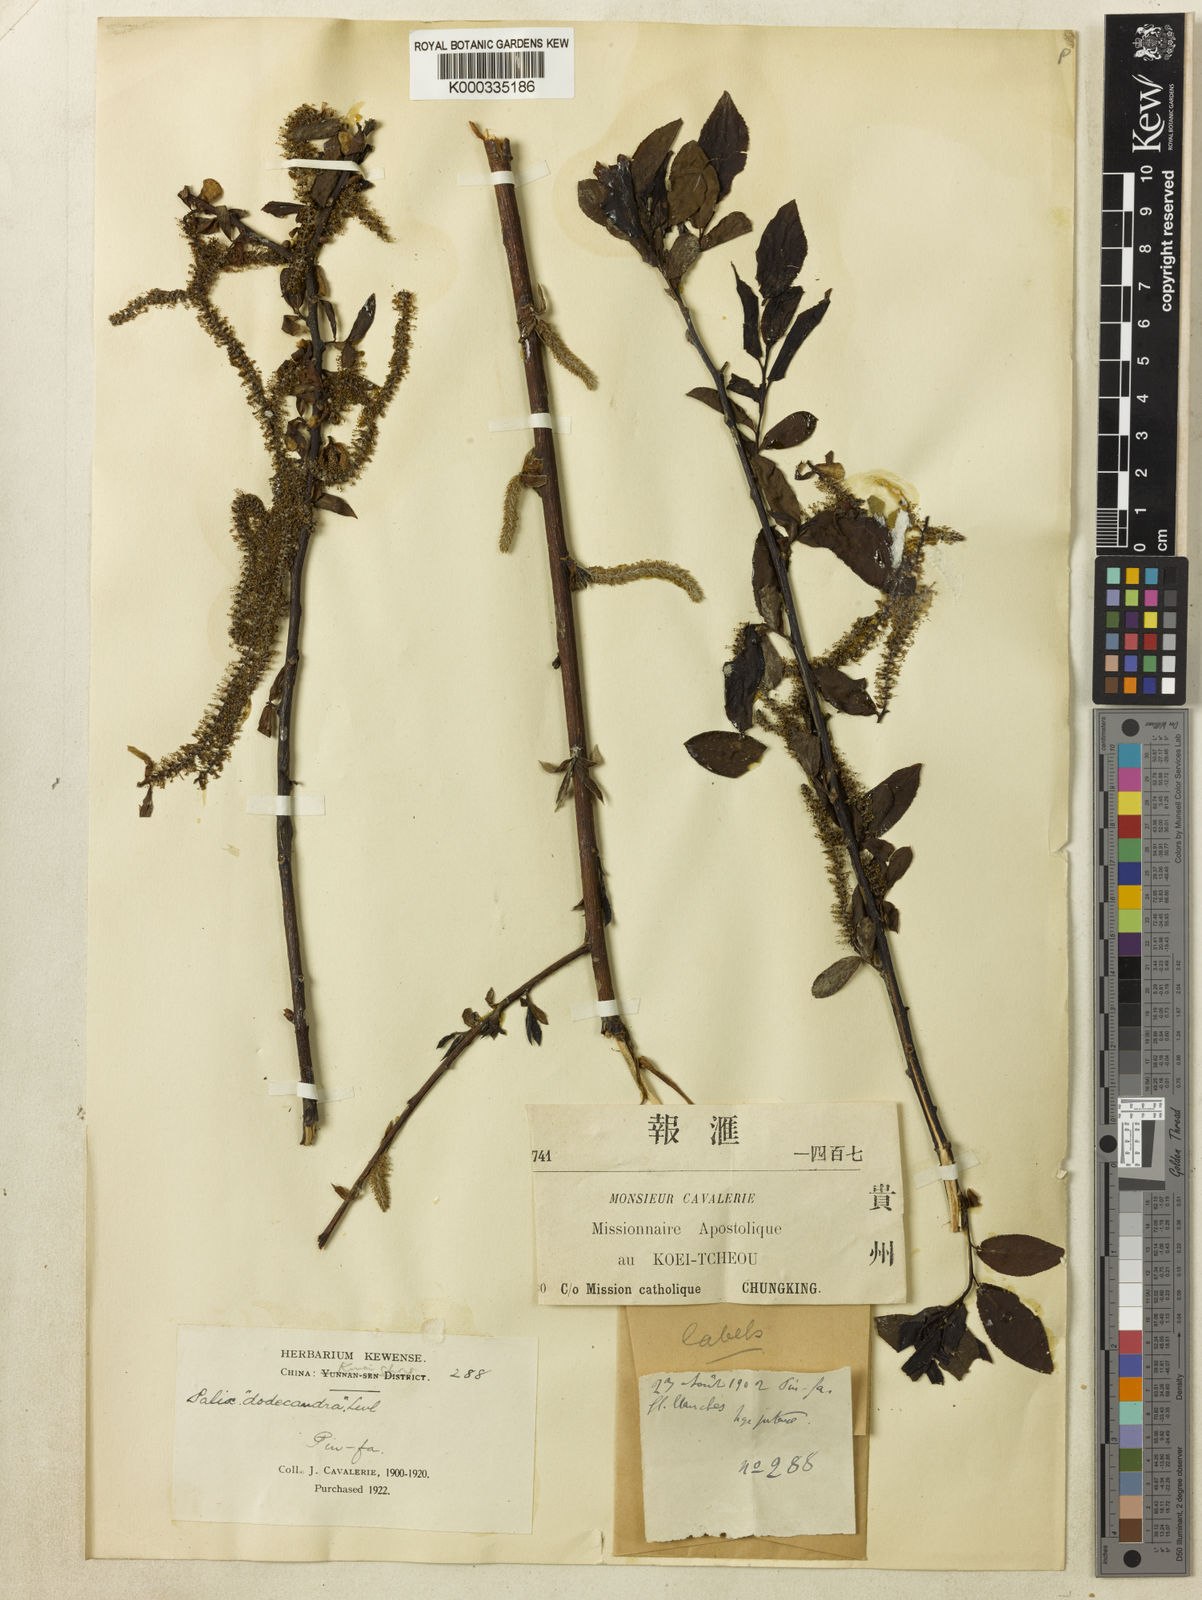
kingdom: Plantae
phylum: Tracheophyta
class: Magnoliopsida
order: Malpighiales
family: Salicaceae
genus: Salix
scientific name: Salix
